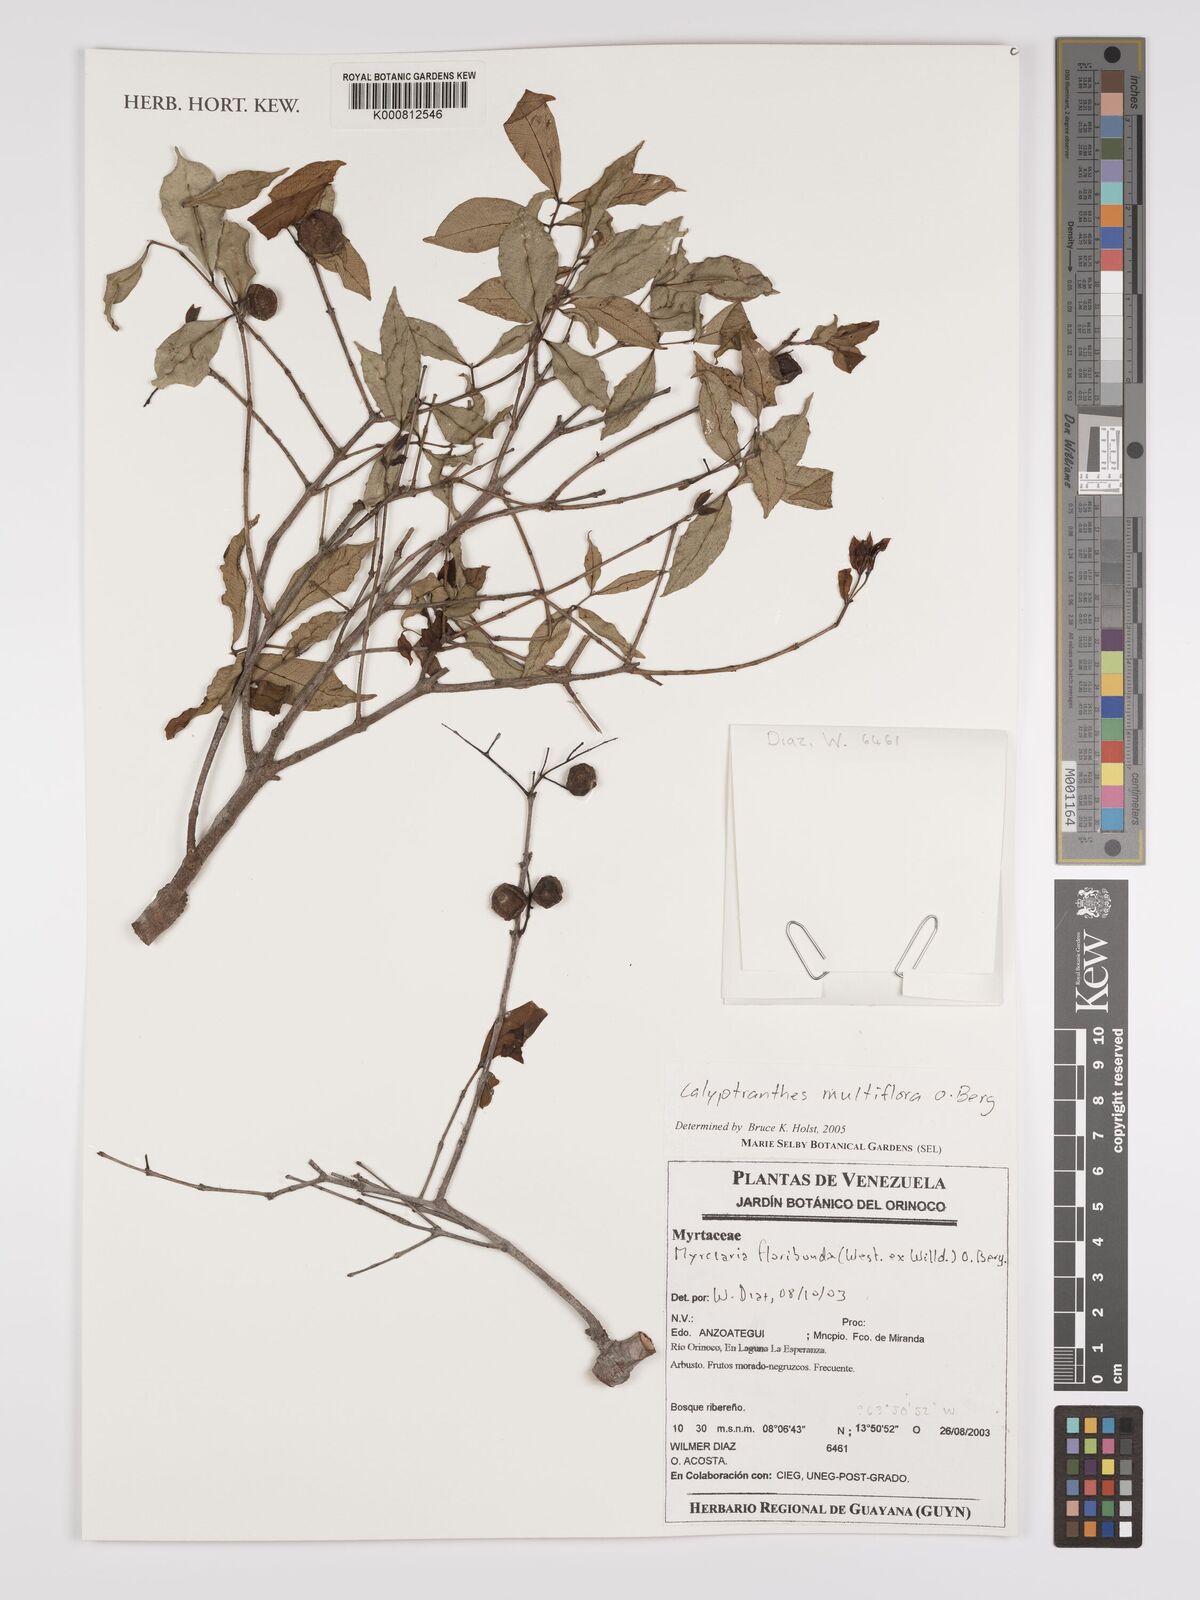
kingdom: Plantae
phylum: Tracheophyta
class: Magnoliopsida
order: Myrtales
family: Myrtaceae
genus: Myrcia
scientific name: Myrcia aulomyrcioides
